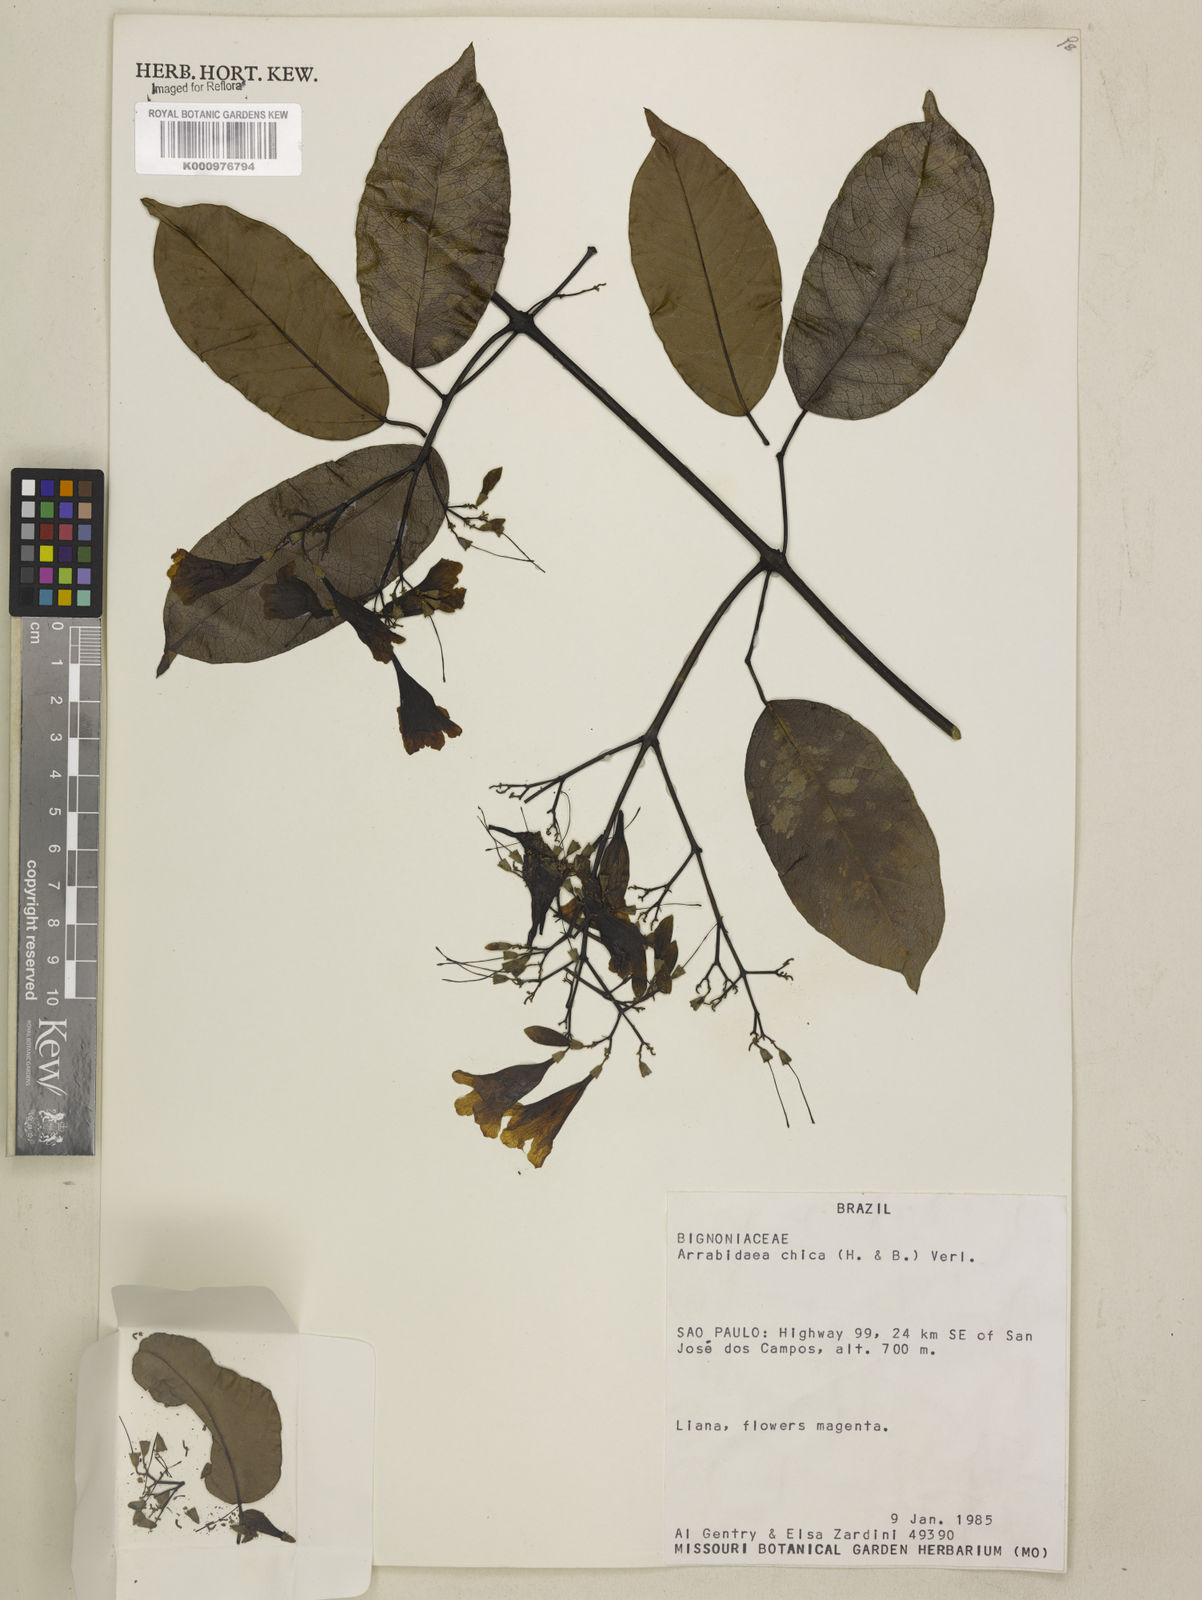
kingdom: Plantae
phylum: Tracheophyta
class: Magnoliopsida
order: Lamiales
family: Bignoniaceae
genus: Fridericia
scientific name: Fridericia chica
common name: Cricketvine
